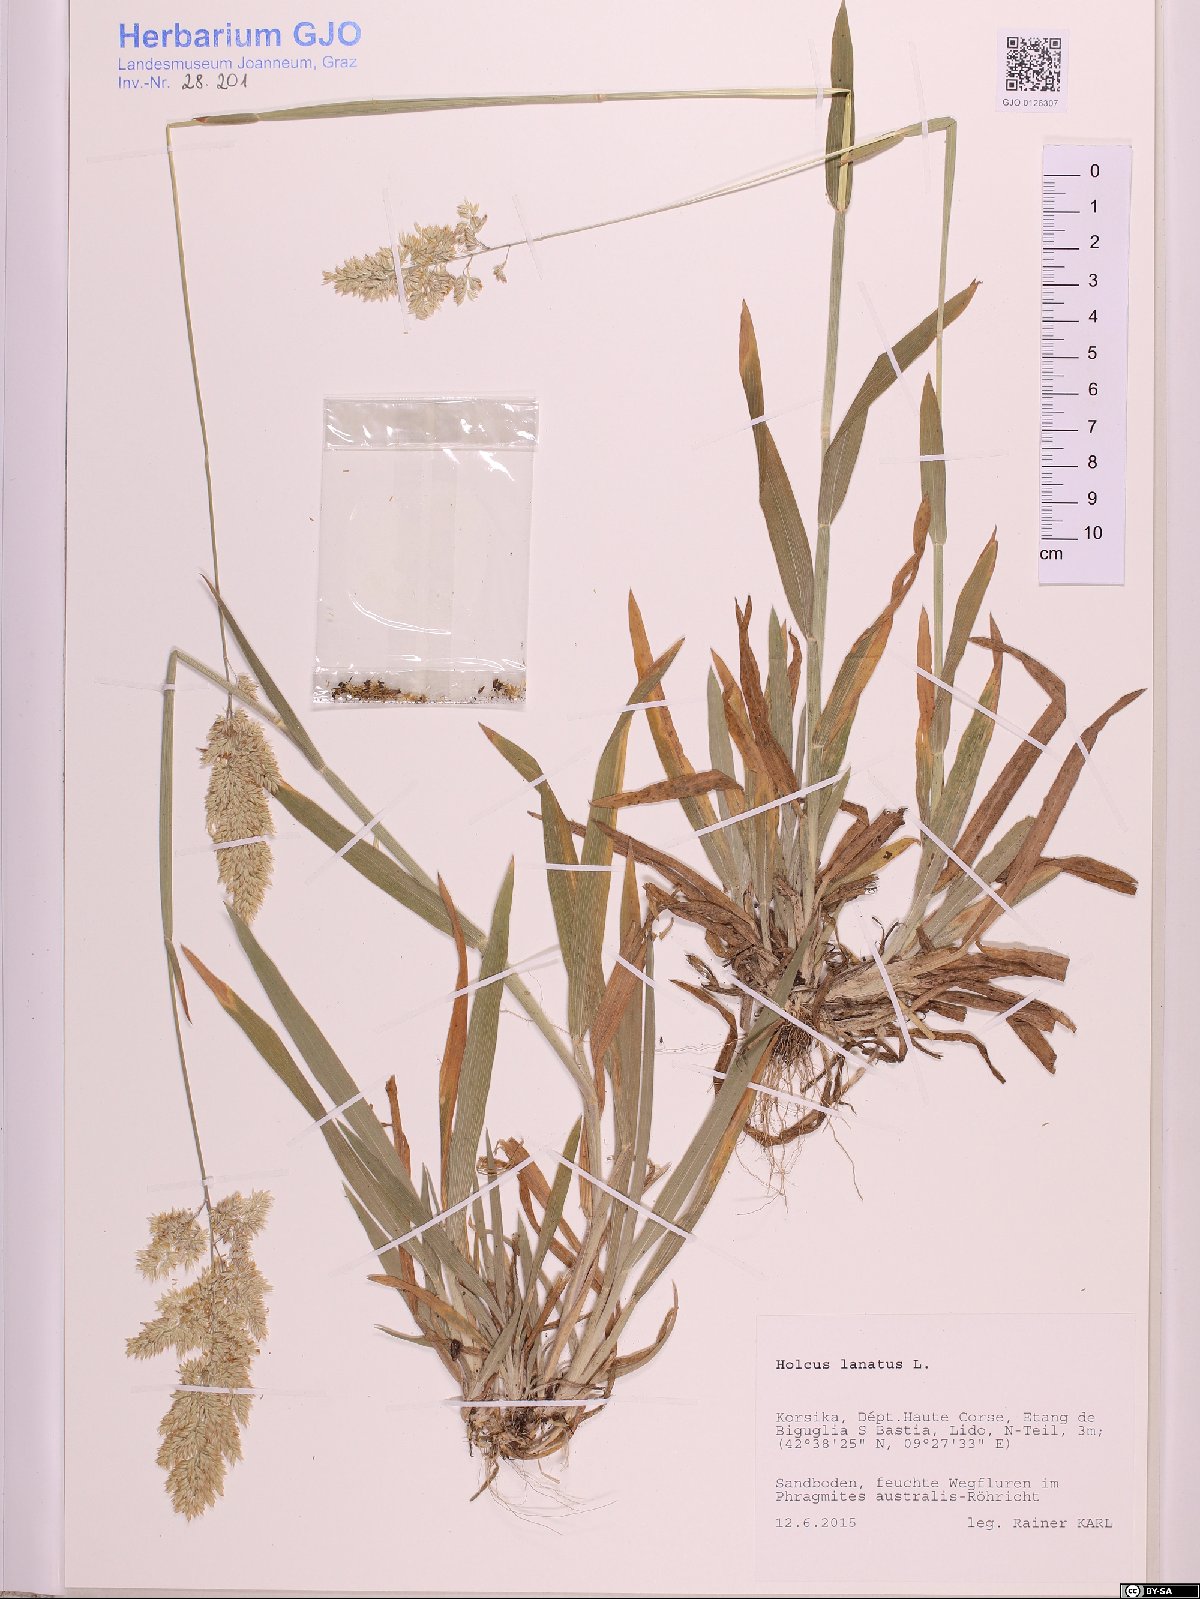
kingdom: Plantae
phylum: Tracheophyta
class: Liliopsida
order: Poales
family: Poaceae
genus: Holcus
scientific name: Holcus lanatus
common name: Yorkshire-fog
